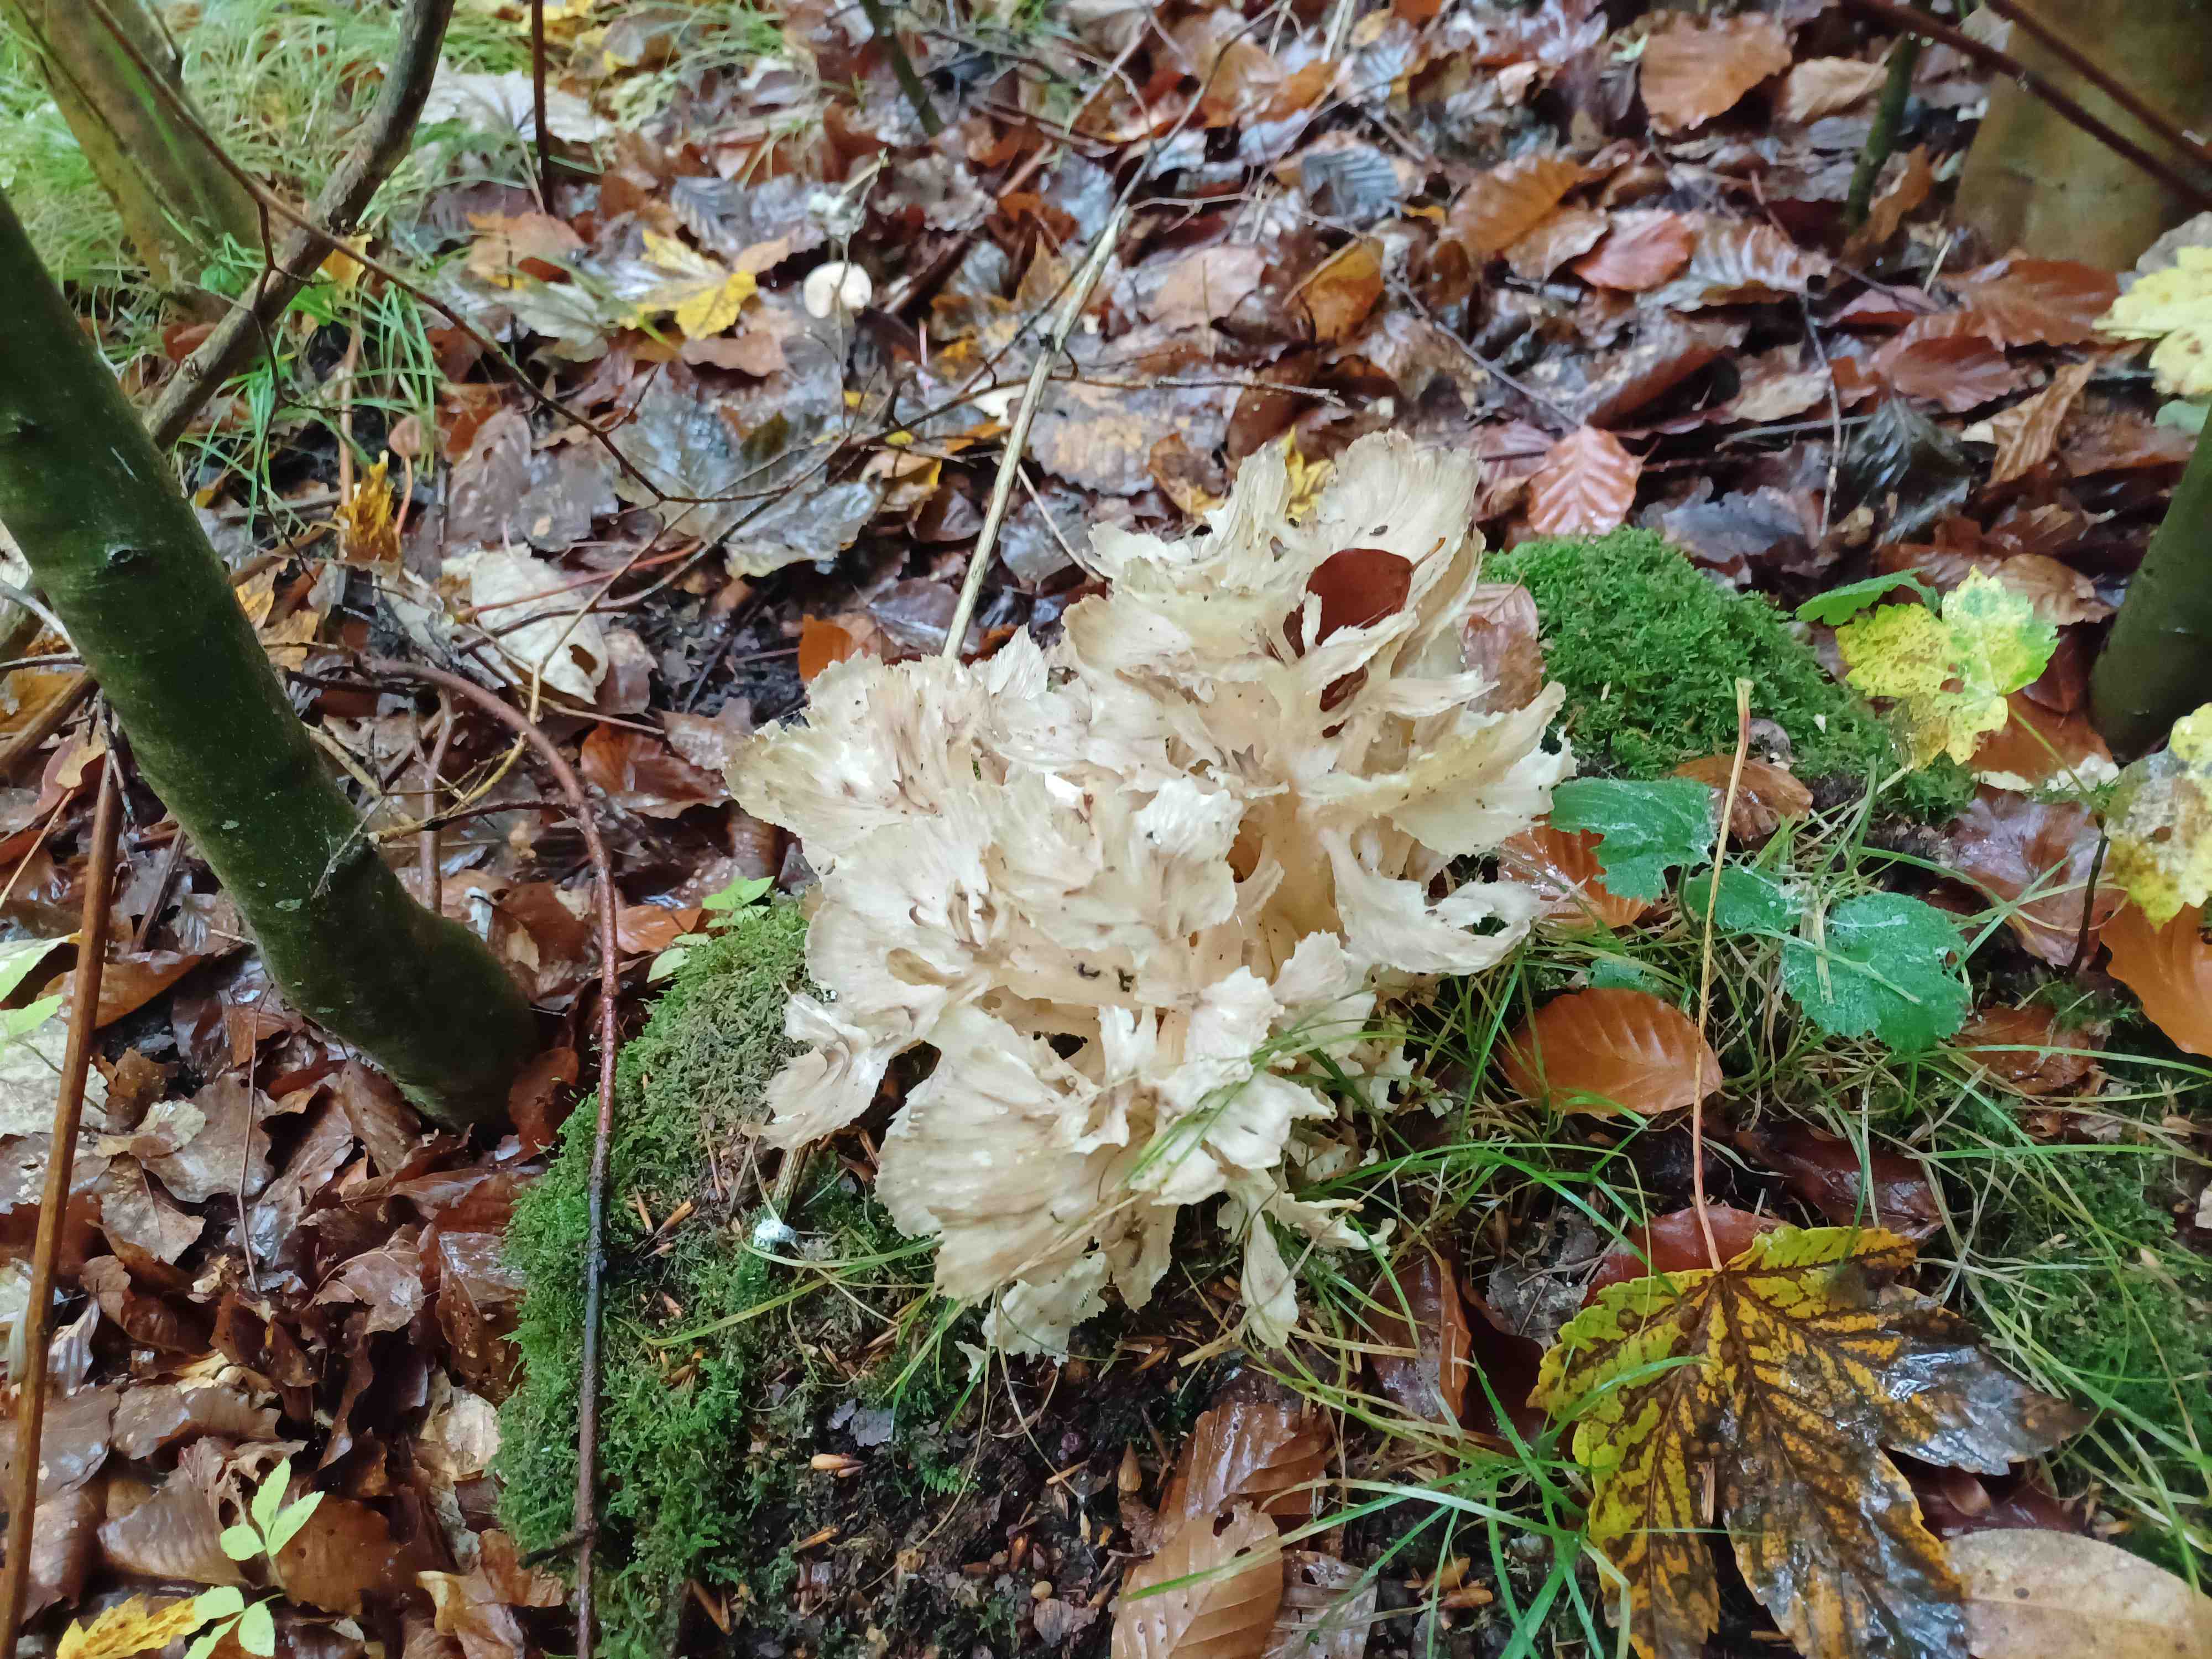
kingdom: Fungi
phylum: Basidiomycota
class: Agaricomycetes
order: Polyporales
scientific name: Polyporales
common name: poresvampordenen
